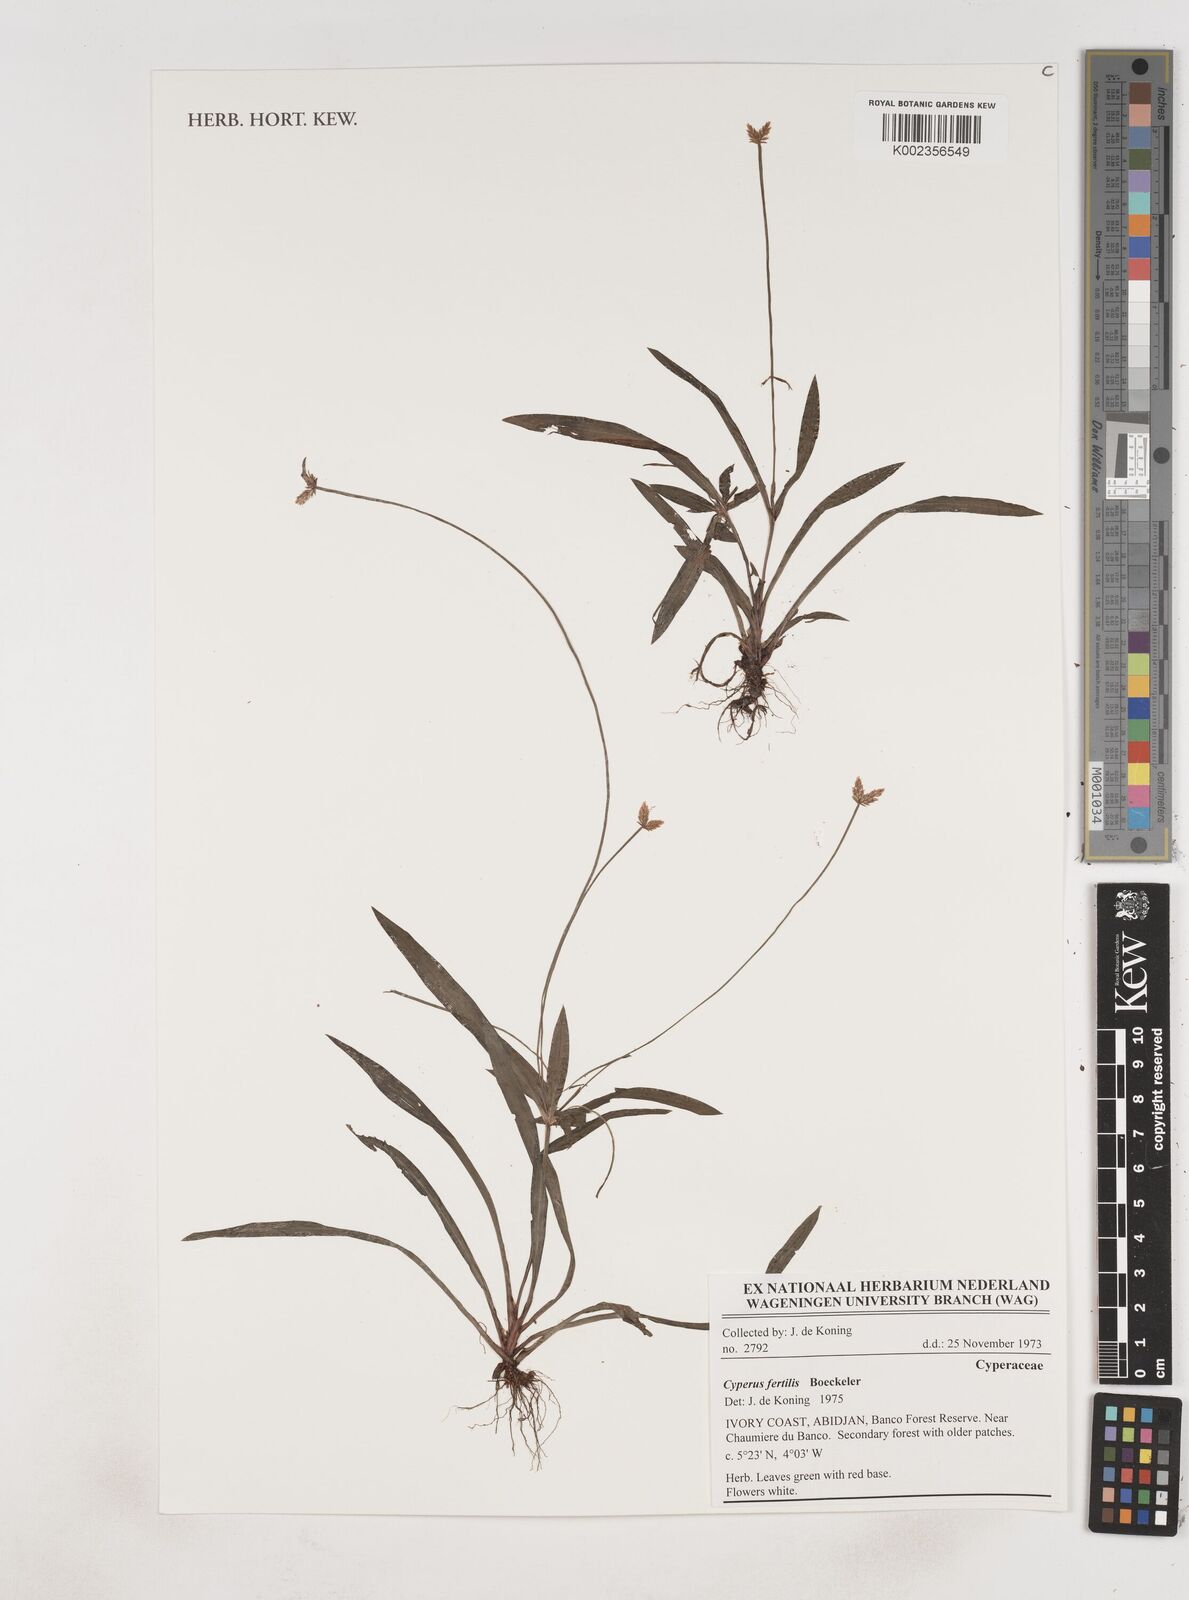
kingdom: Plantae
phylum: Tracheophyta
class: Liliopsida
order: Poales
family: Cyperaceae
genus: Cyperus
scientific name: Cyperus fertilis
